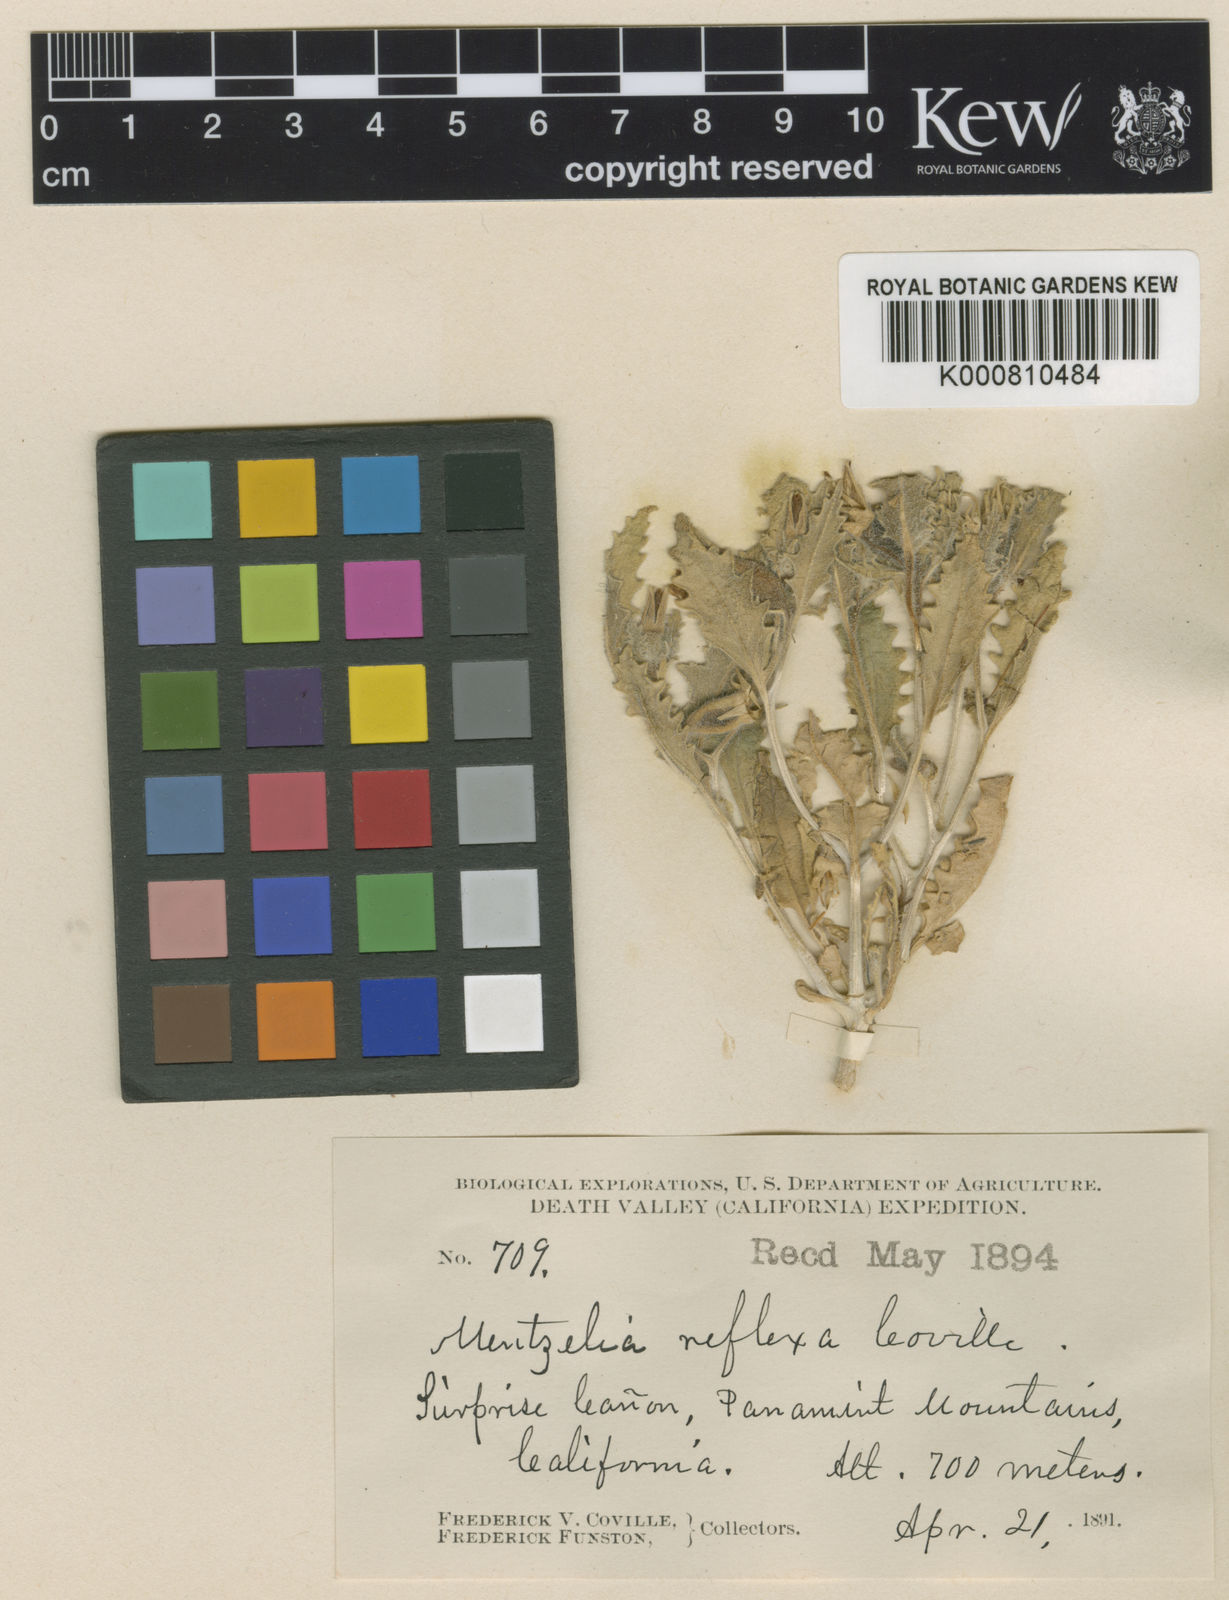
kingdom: Plantae
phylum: Tracheophyta
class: Magnoliopsida
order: Cornales
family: Loasaceae
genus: Mentzelia
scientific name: Mentzelia reflexa
